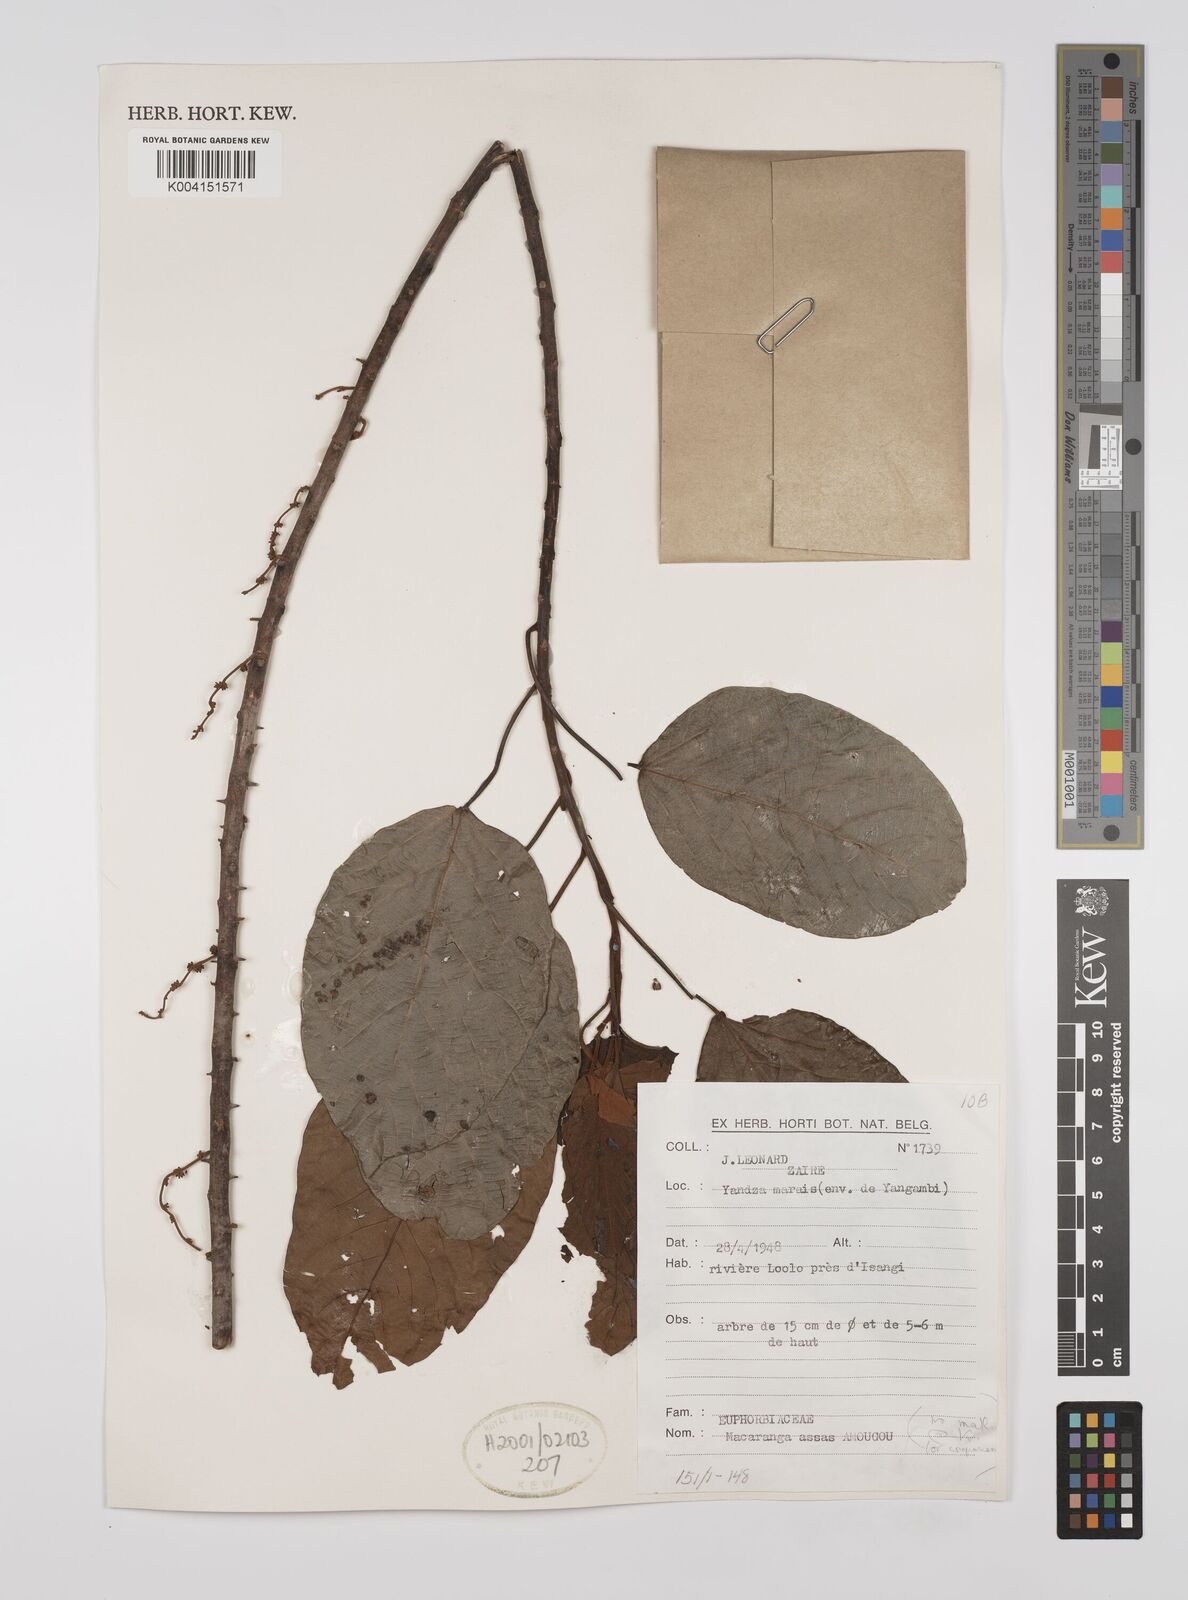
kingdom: Plantae
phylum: Tracheophyta
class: Magnoliopsida
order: Malpighiales
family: Euphorbiaceae
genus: Macaranga
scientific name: Macaranga assas
